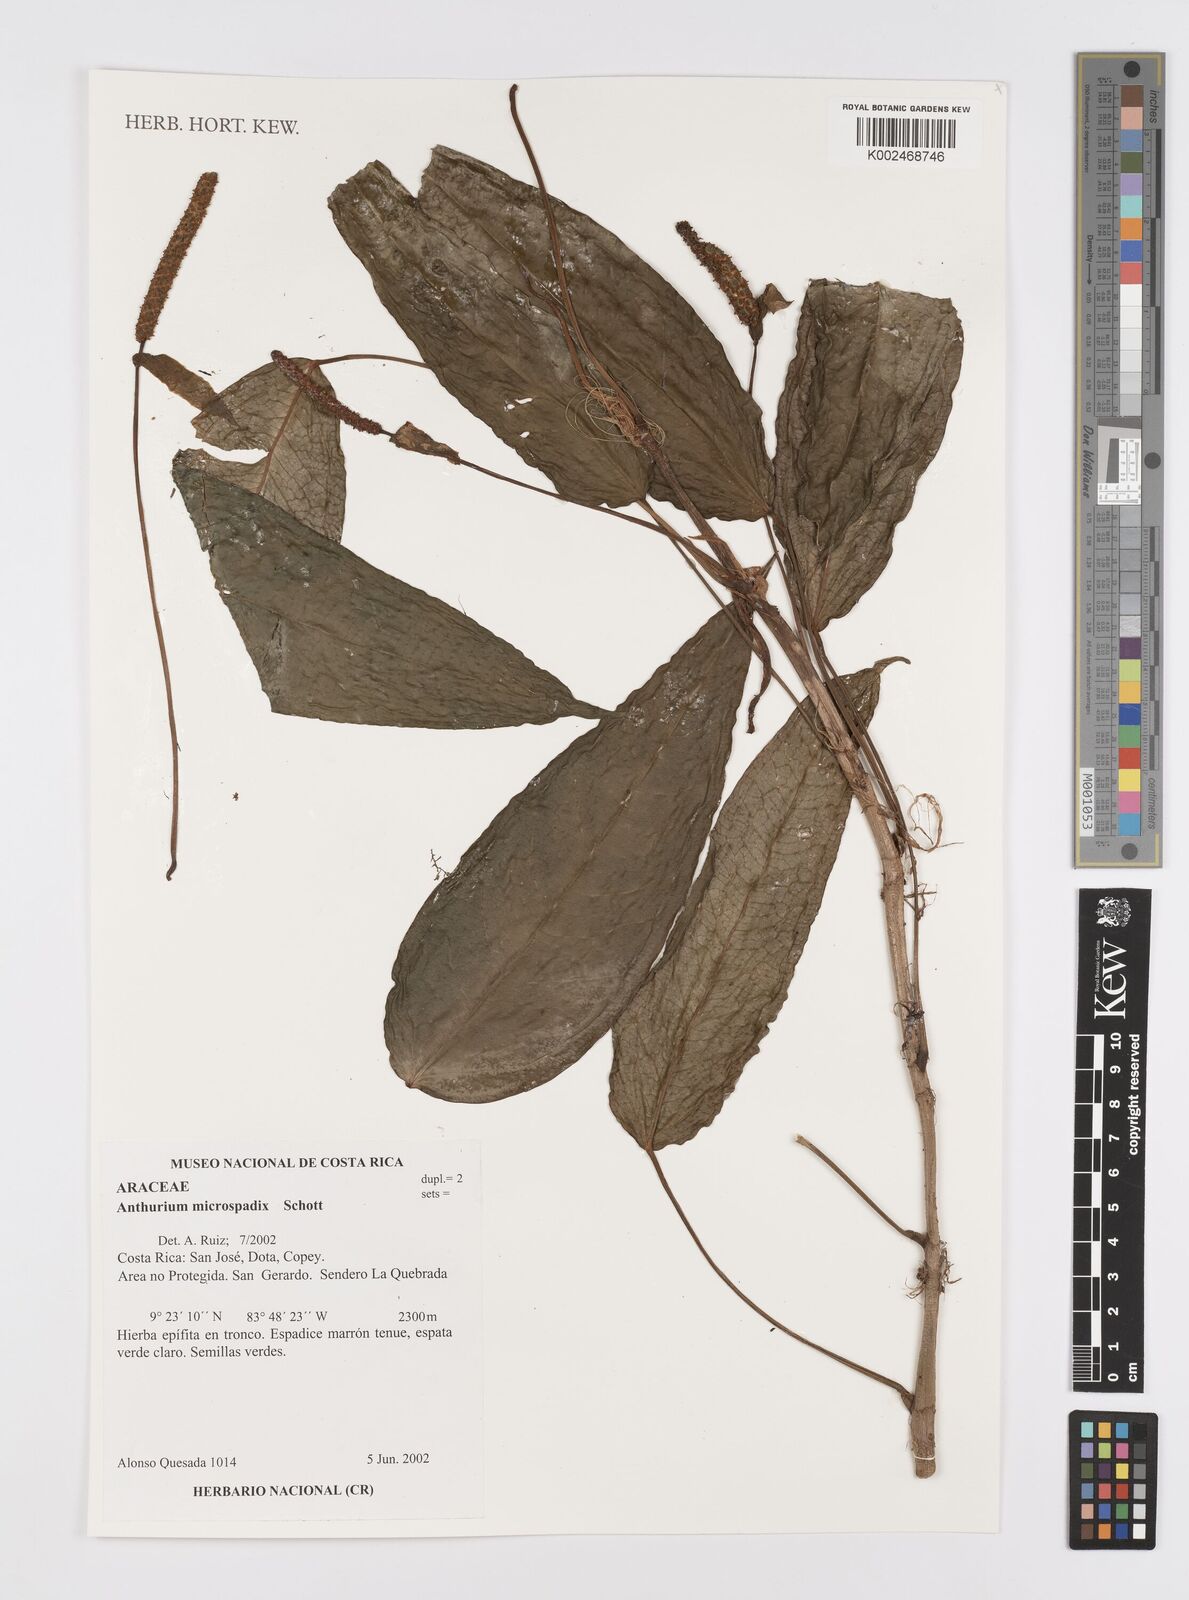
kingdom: Plantae
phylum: Tracheophyta
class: Liliopsida
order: Alismatales
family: Araceae
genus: Anthurium
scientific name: Anthurium microspadix
